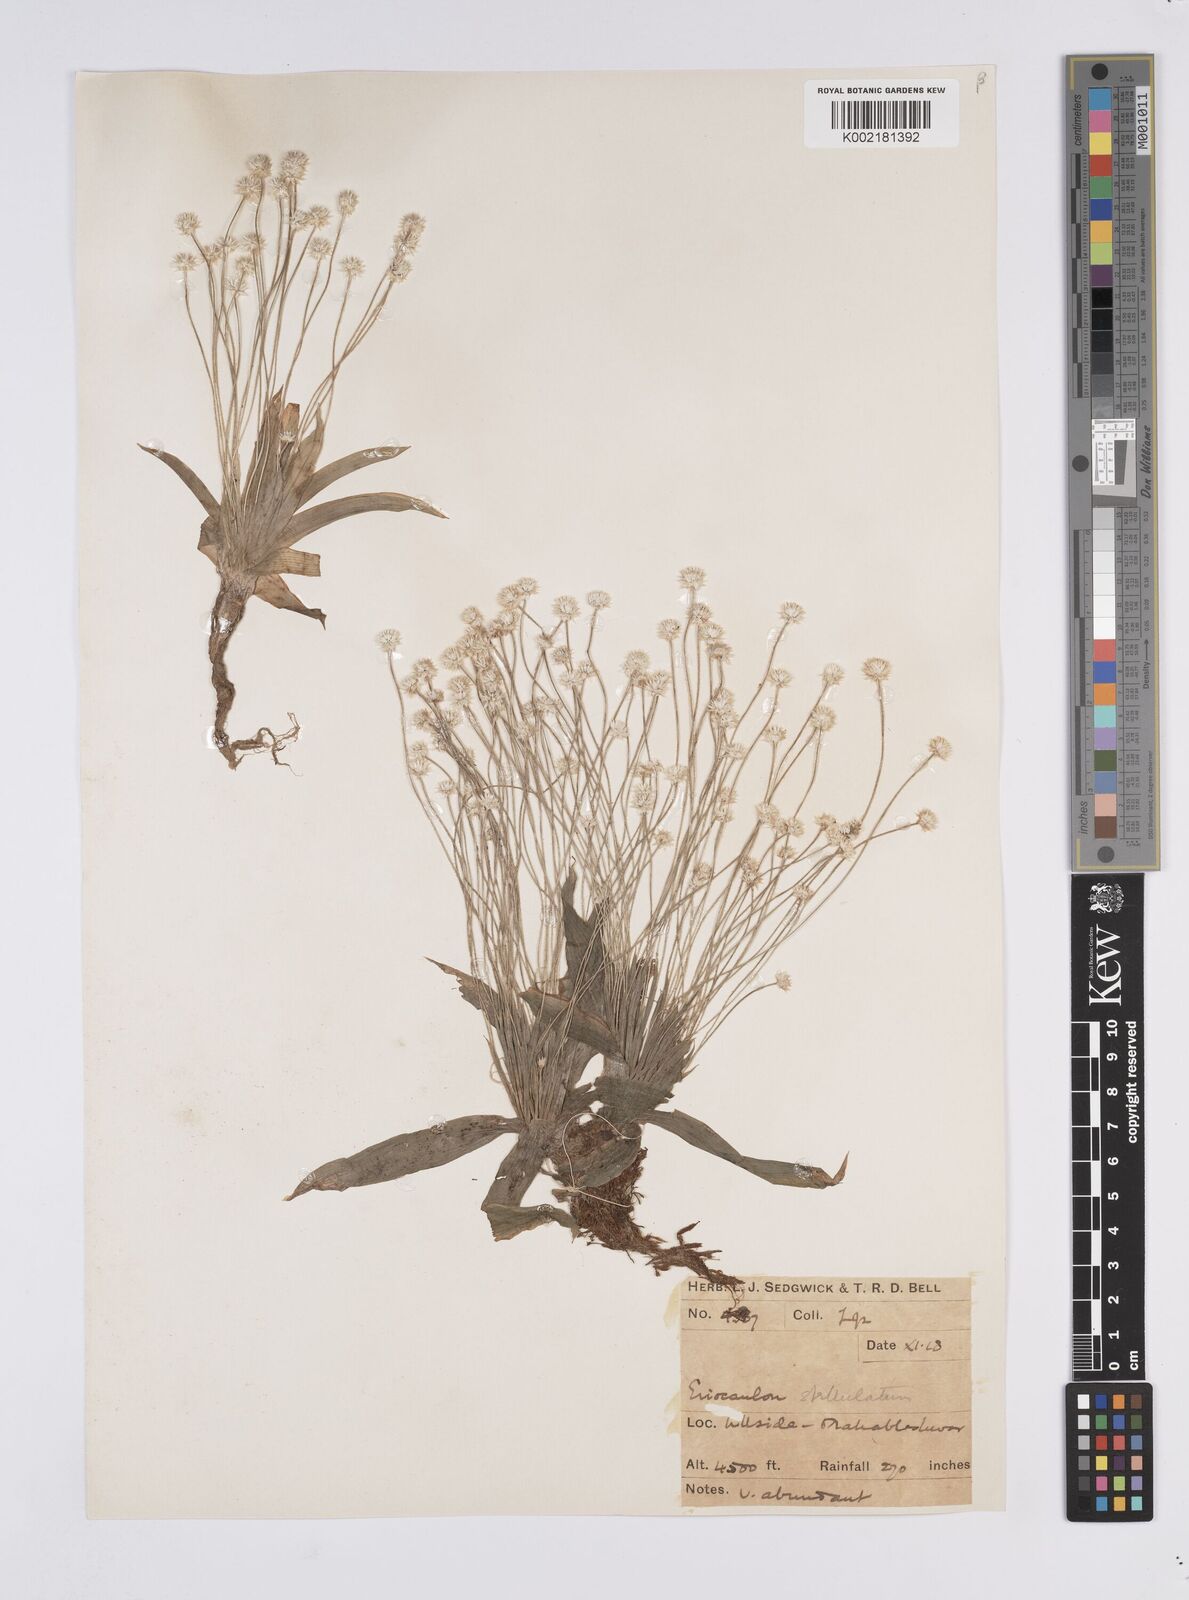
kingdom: Plantae
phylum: Tracheophyta
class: Liliopsida
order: Poales
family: Eriocaulaceae
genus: Eriocaulon
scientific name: Eriocaulon stellulatum
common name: Starry pipewort
